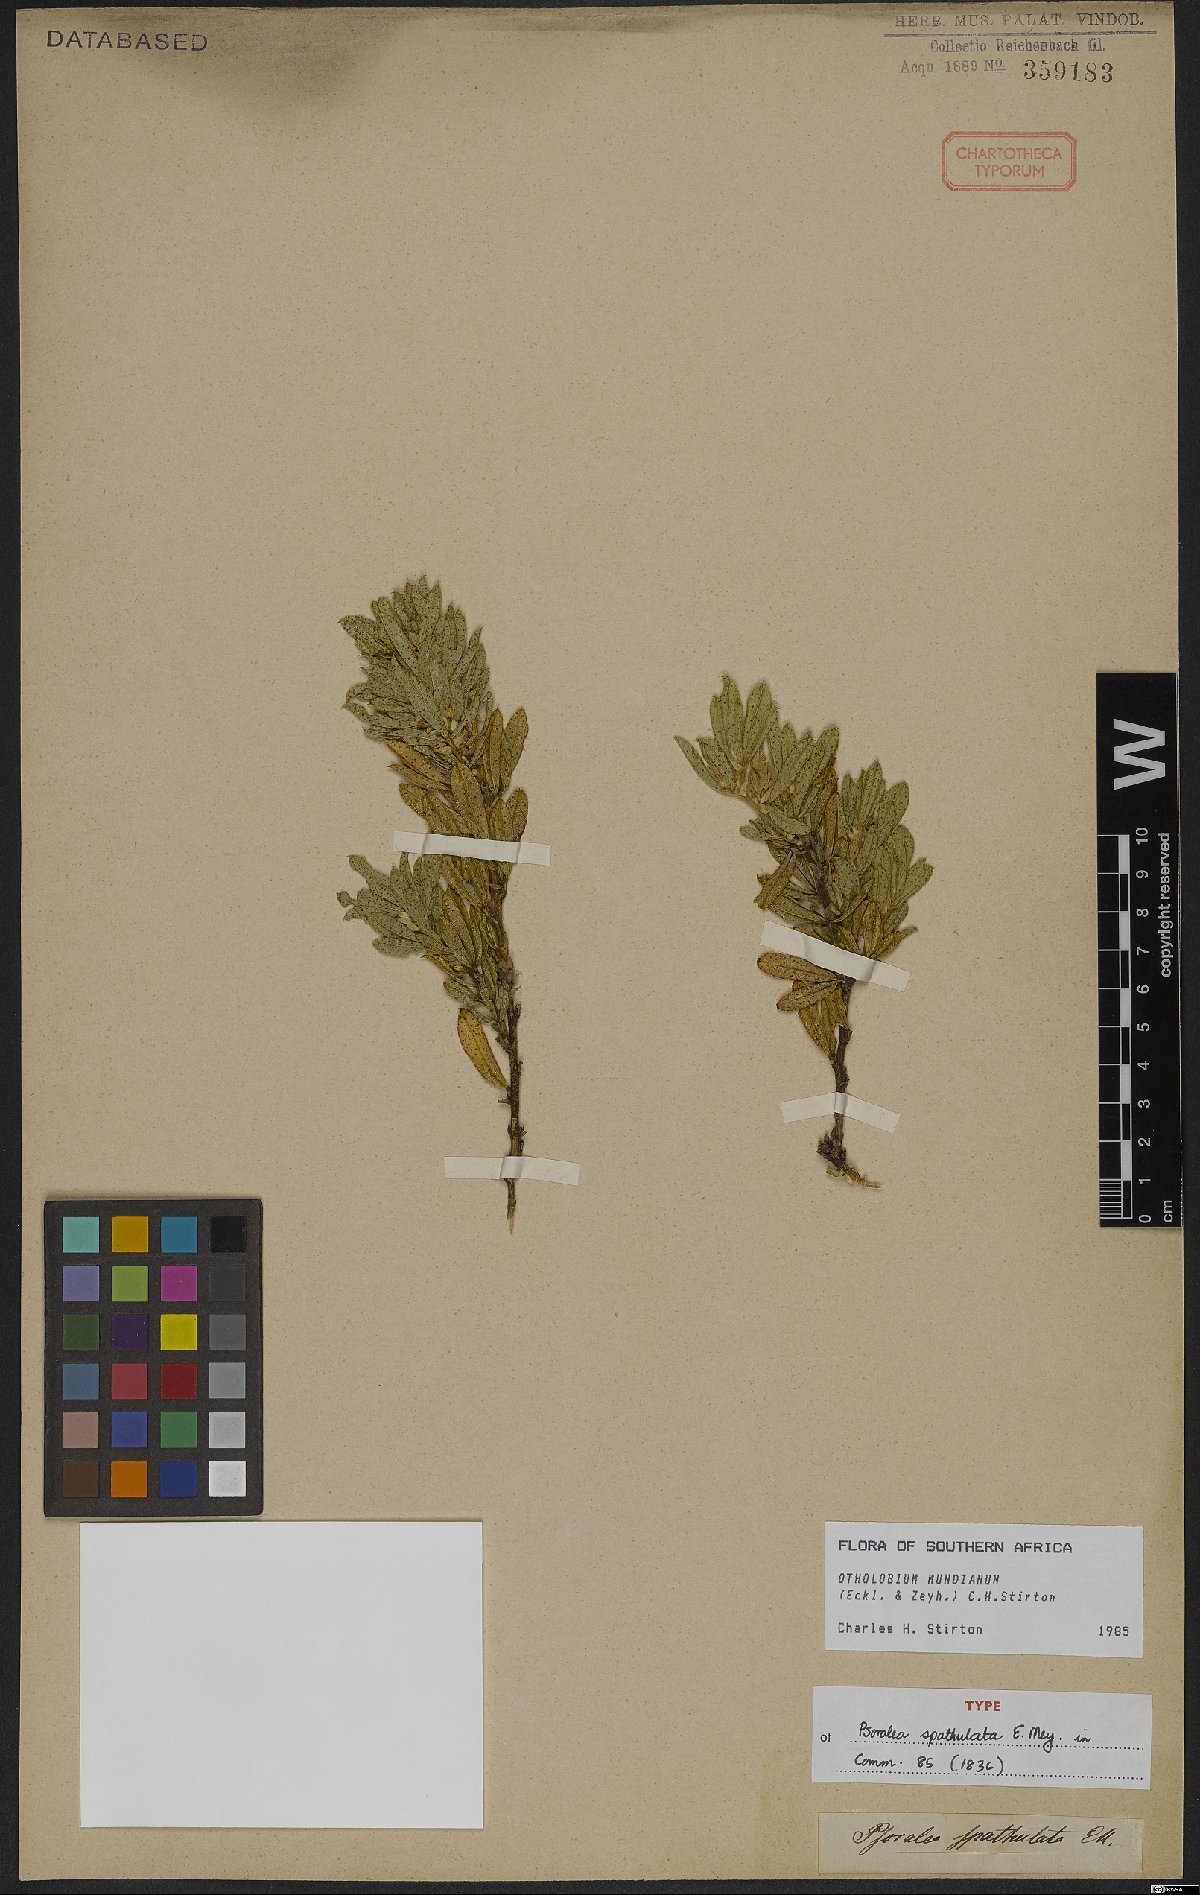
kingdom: Plantae
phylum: Tracheophyta
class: Magnoliopsida
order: Fabales
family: Fabaceae
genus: Psoralea
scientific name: Psoralea mundiana
